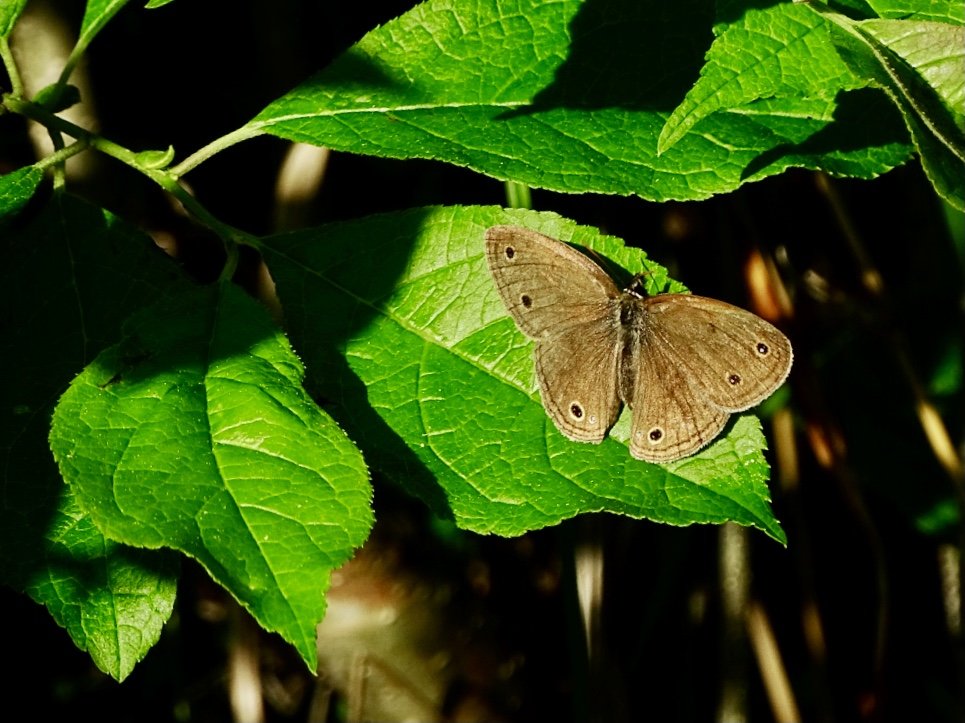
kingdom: Animalia
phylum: Arthropoda
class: Insecta
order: Lepidoptera
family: Nymphalidae
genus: Euptychia
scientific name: Euptychia cymela
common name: Little Wood Satyr
